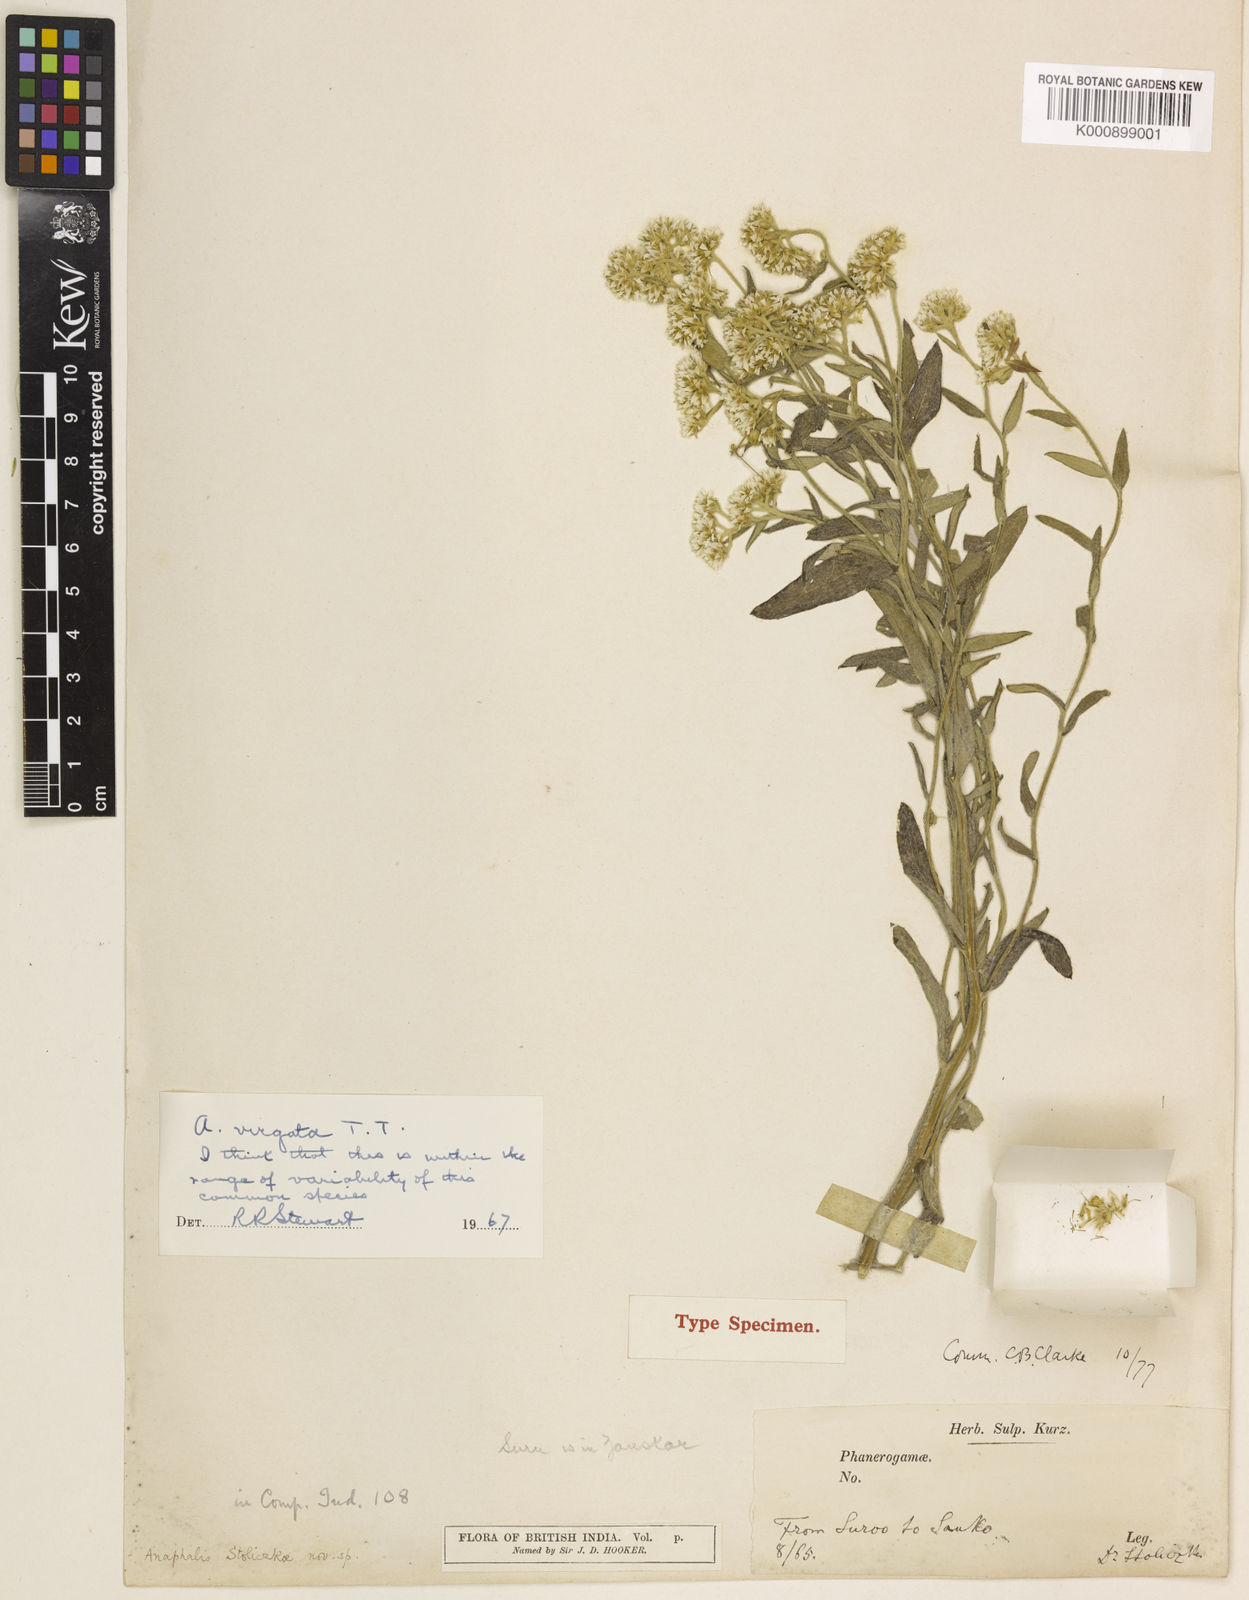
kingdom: Plantae
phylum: Tracheophyta
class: Magnoliopsida
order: Asterales
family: Asteraceae
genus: Anaphalis
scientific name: Anaphalis virgata
